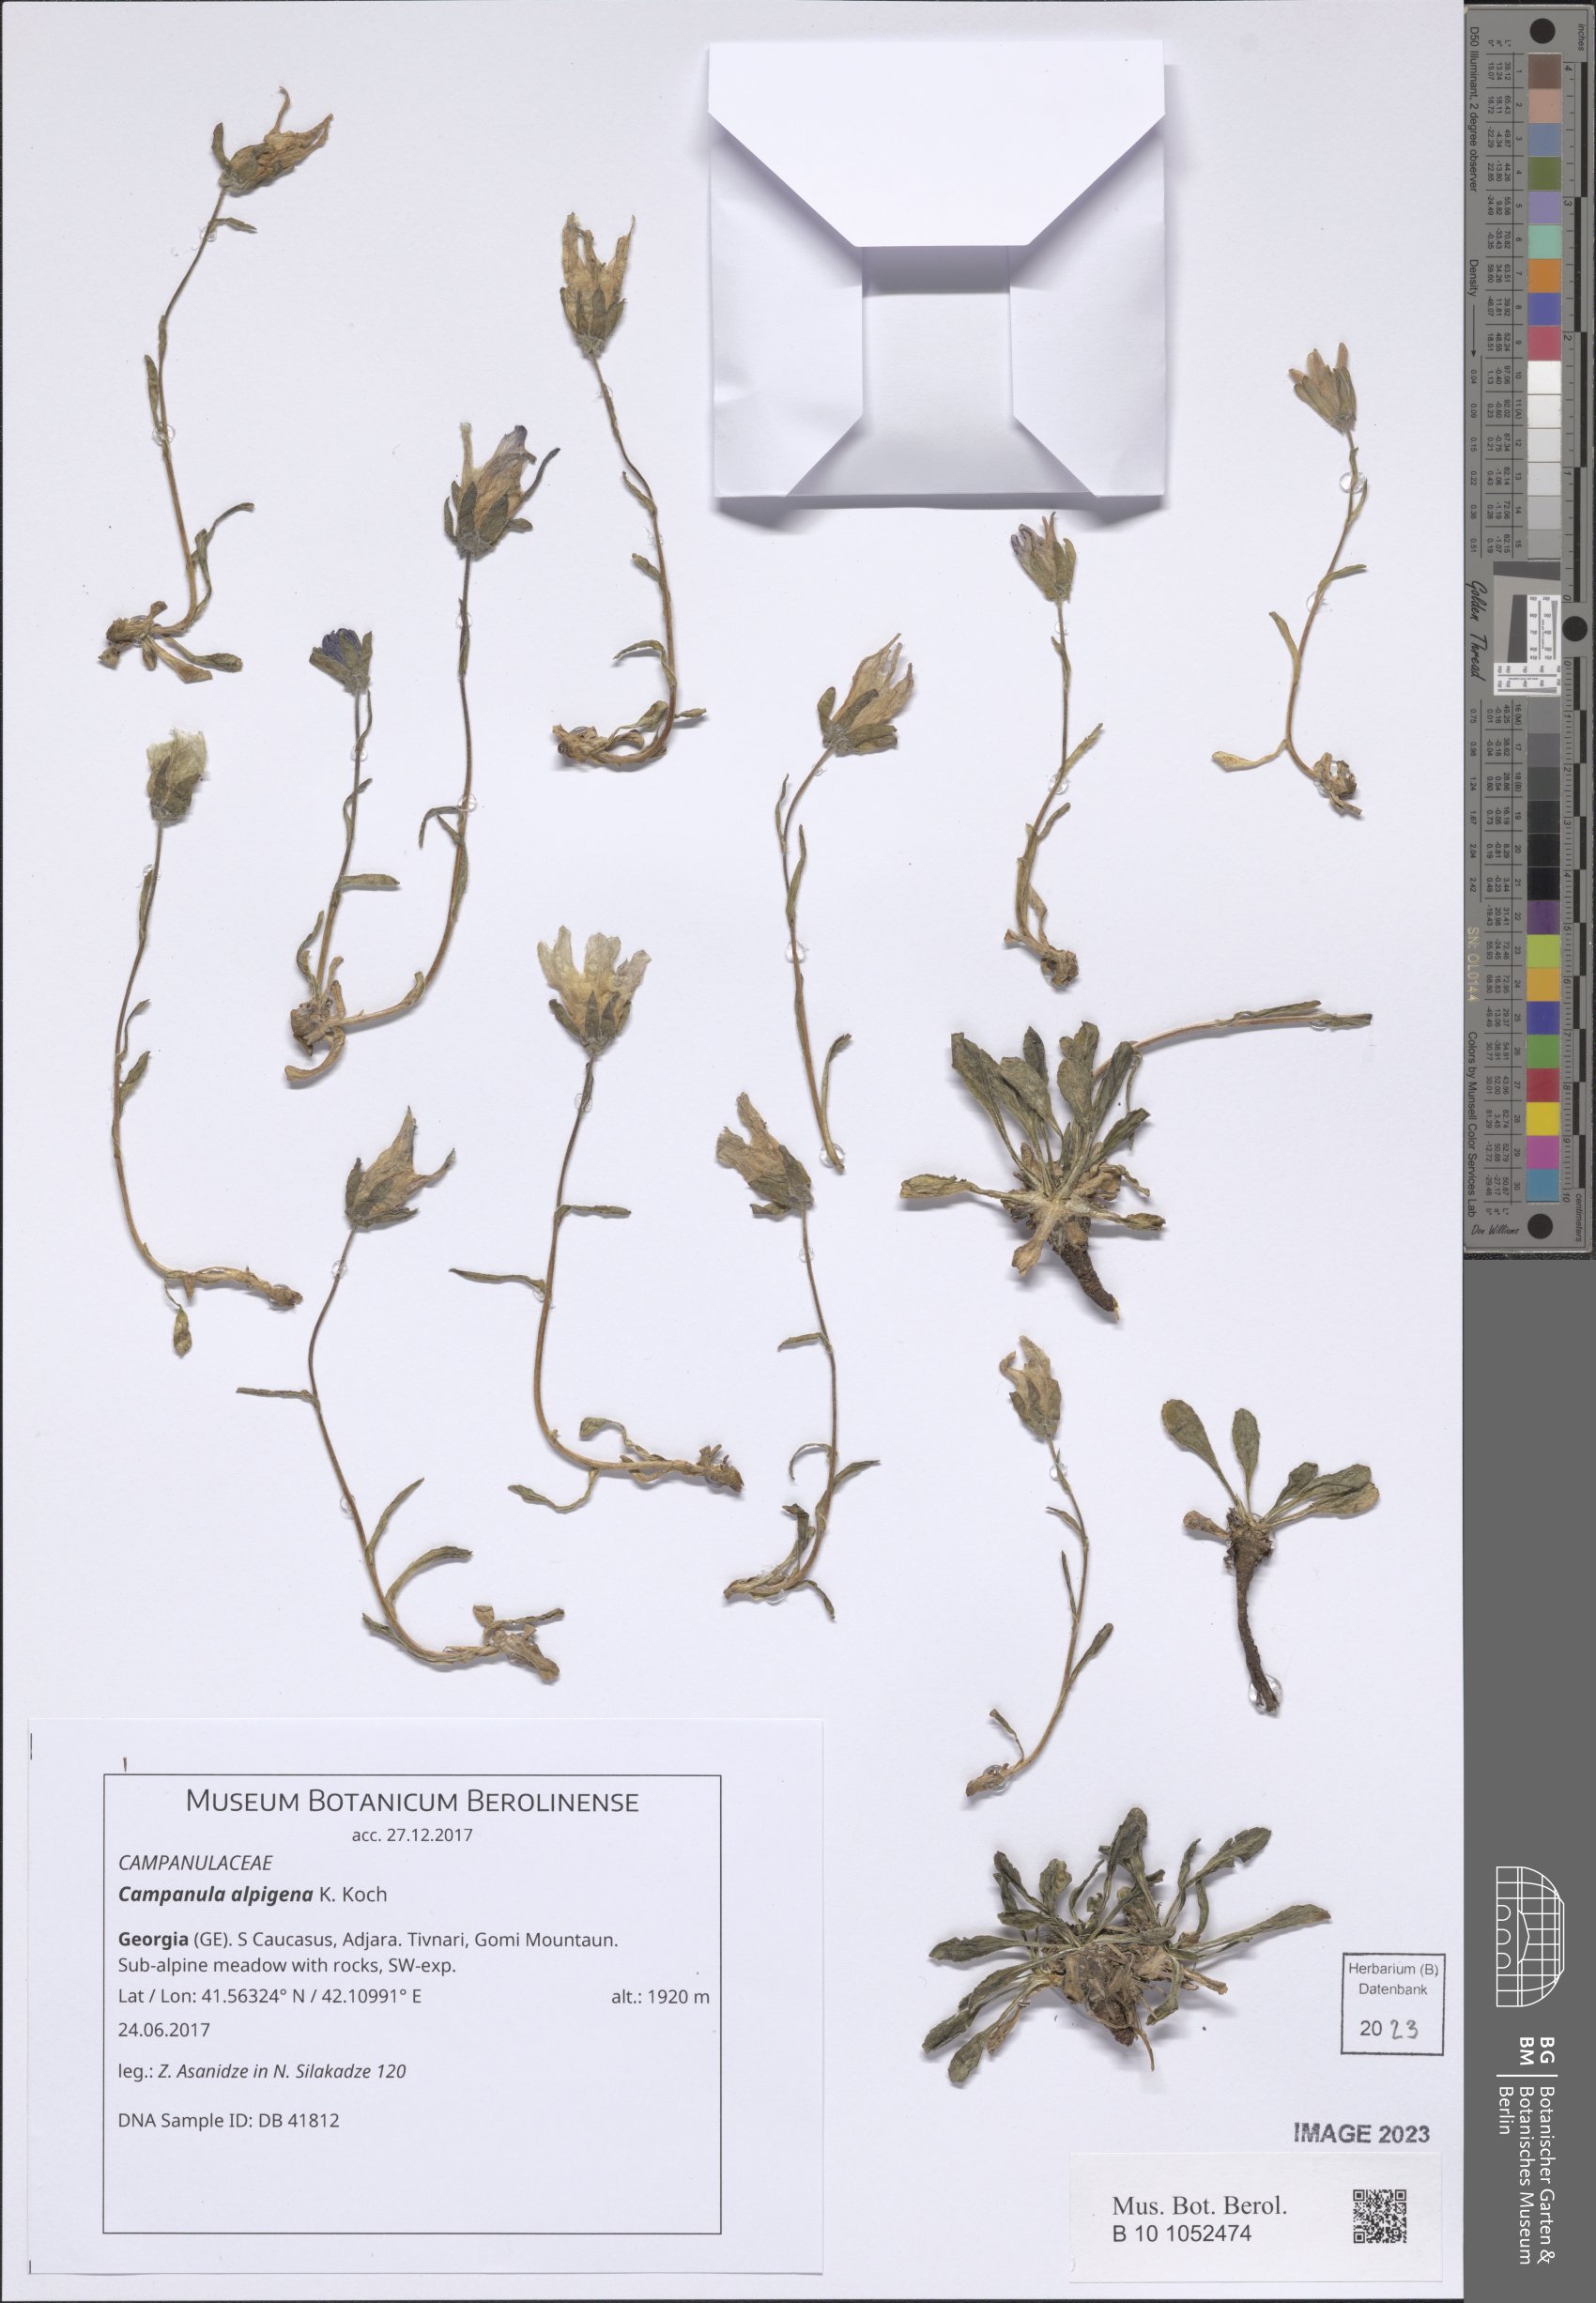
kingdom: Plantae
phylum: Tracheophyta
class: Magnoliopsida
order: Asterales
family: Campanulaceae
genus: Campanula
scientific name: Campanula saxifraga
